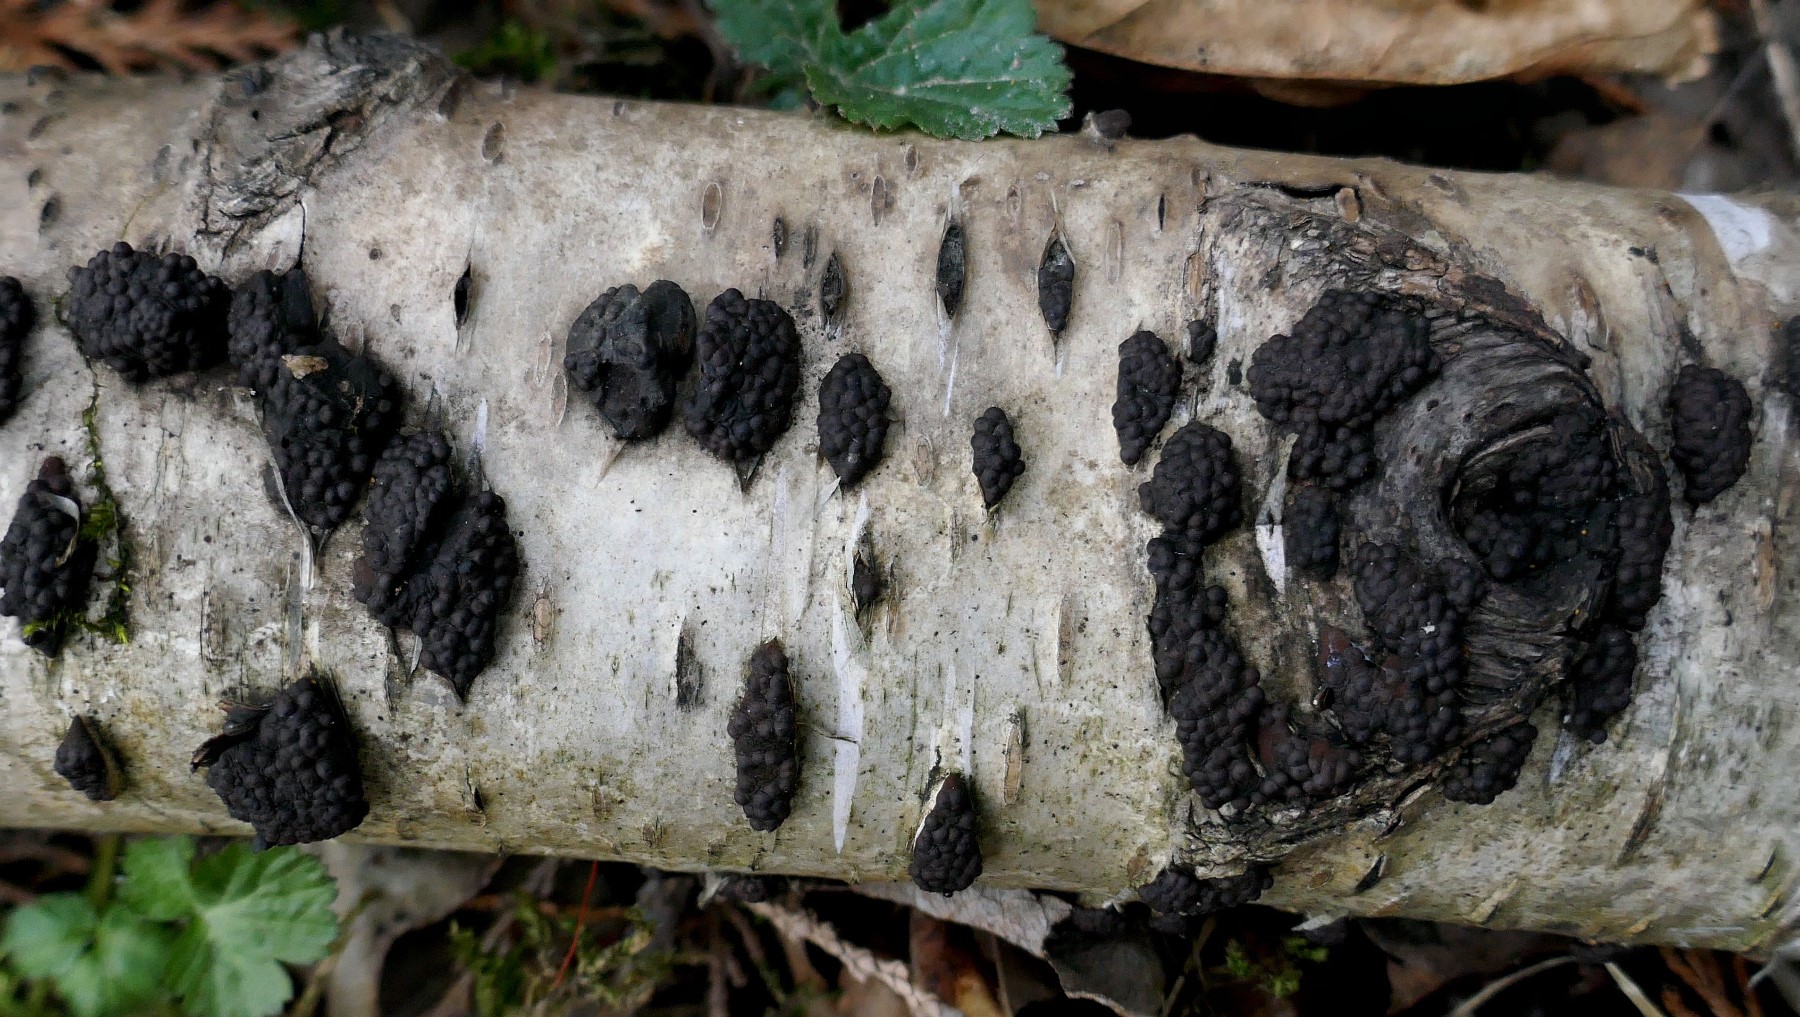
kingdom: Fungi
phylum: Ascomycota
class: Sordariomycetes
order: Xylariales
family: Hypoxylaceae
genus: Jackrogersella
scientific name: Jackrogersella multiformis
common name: foranderlig kulbær
